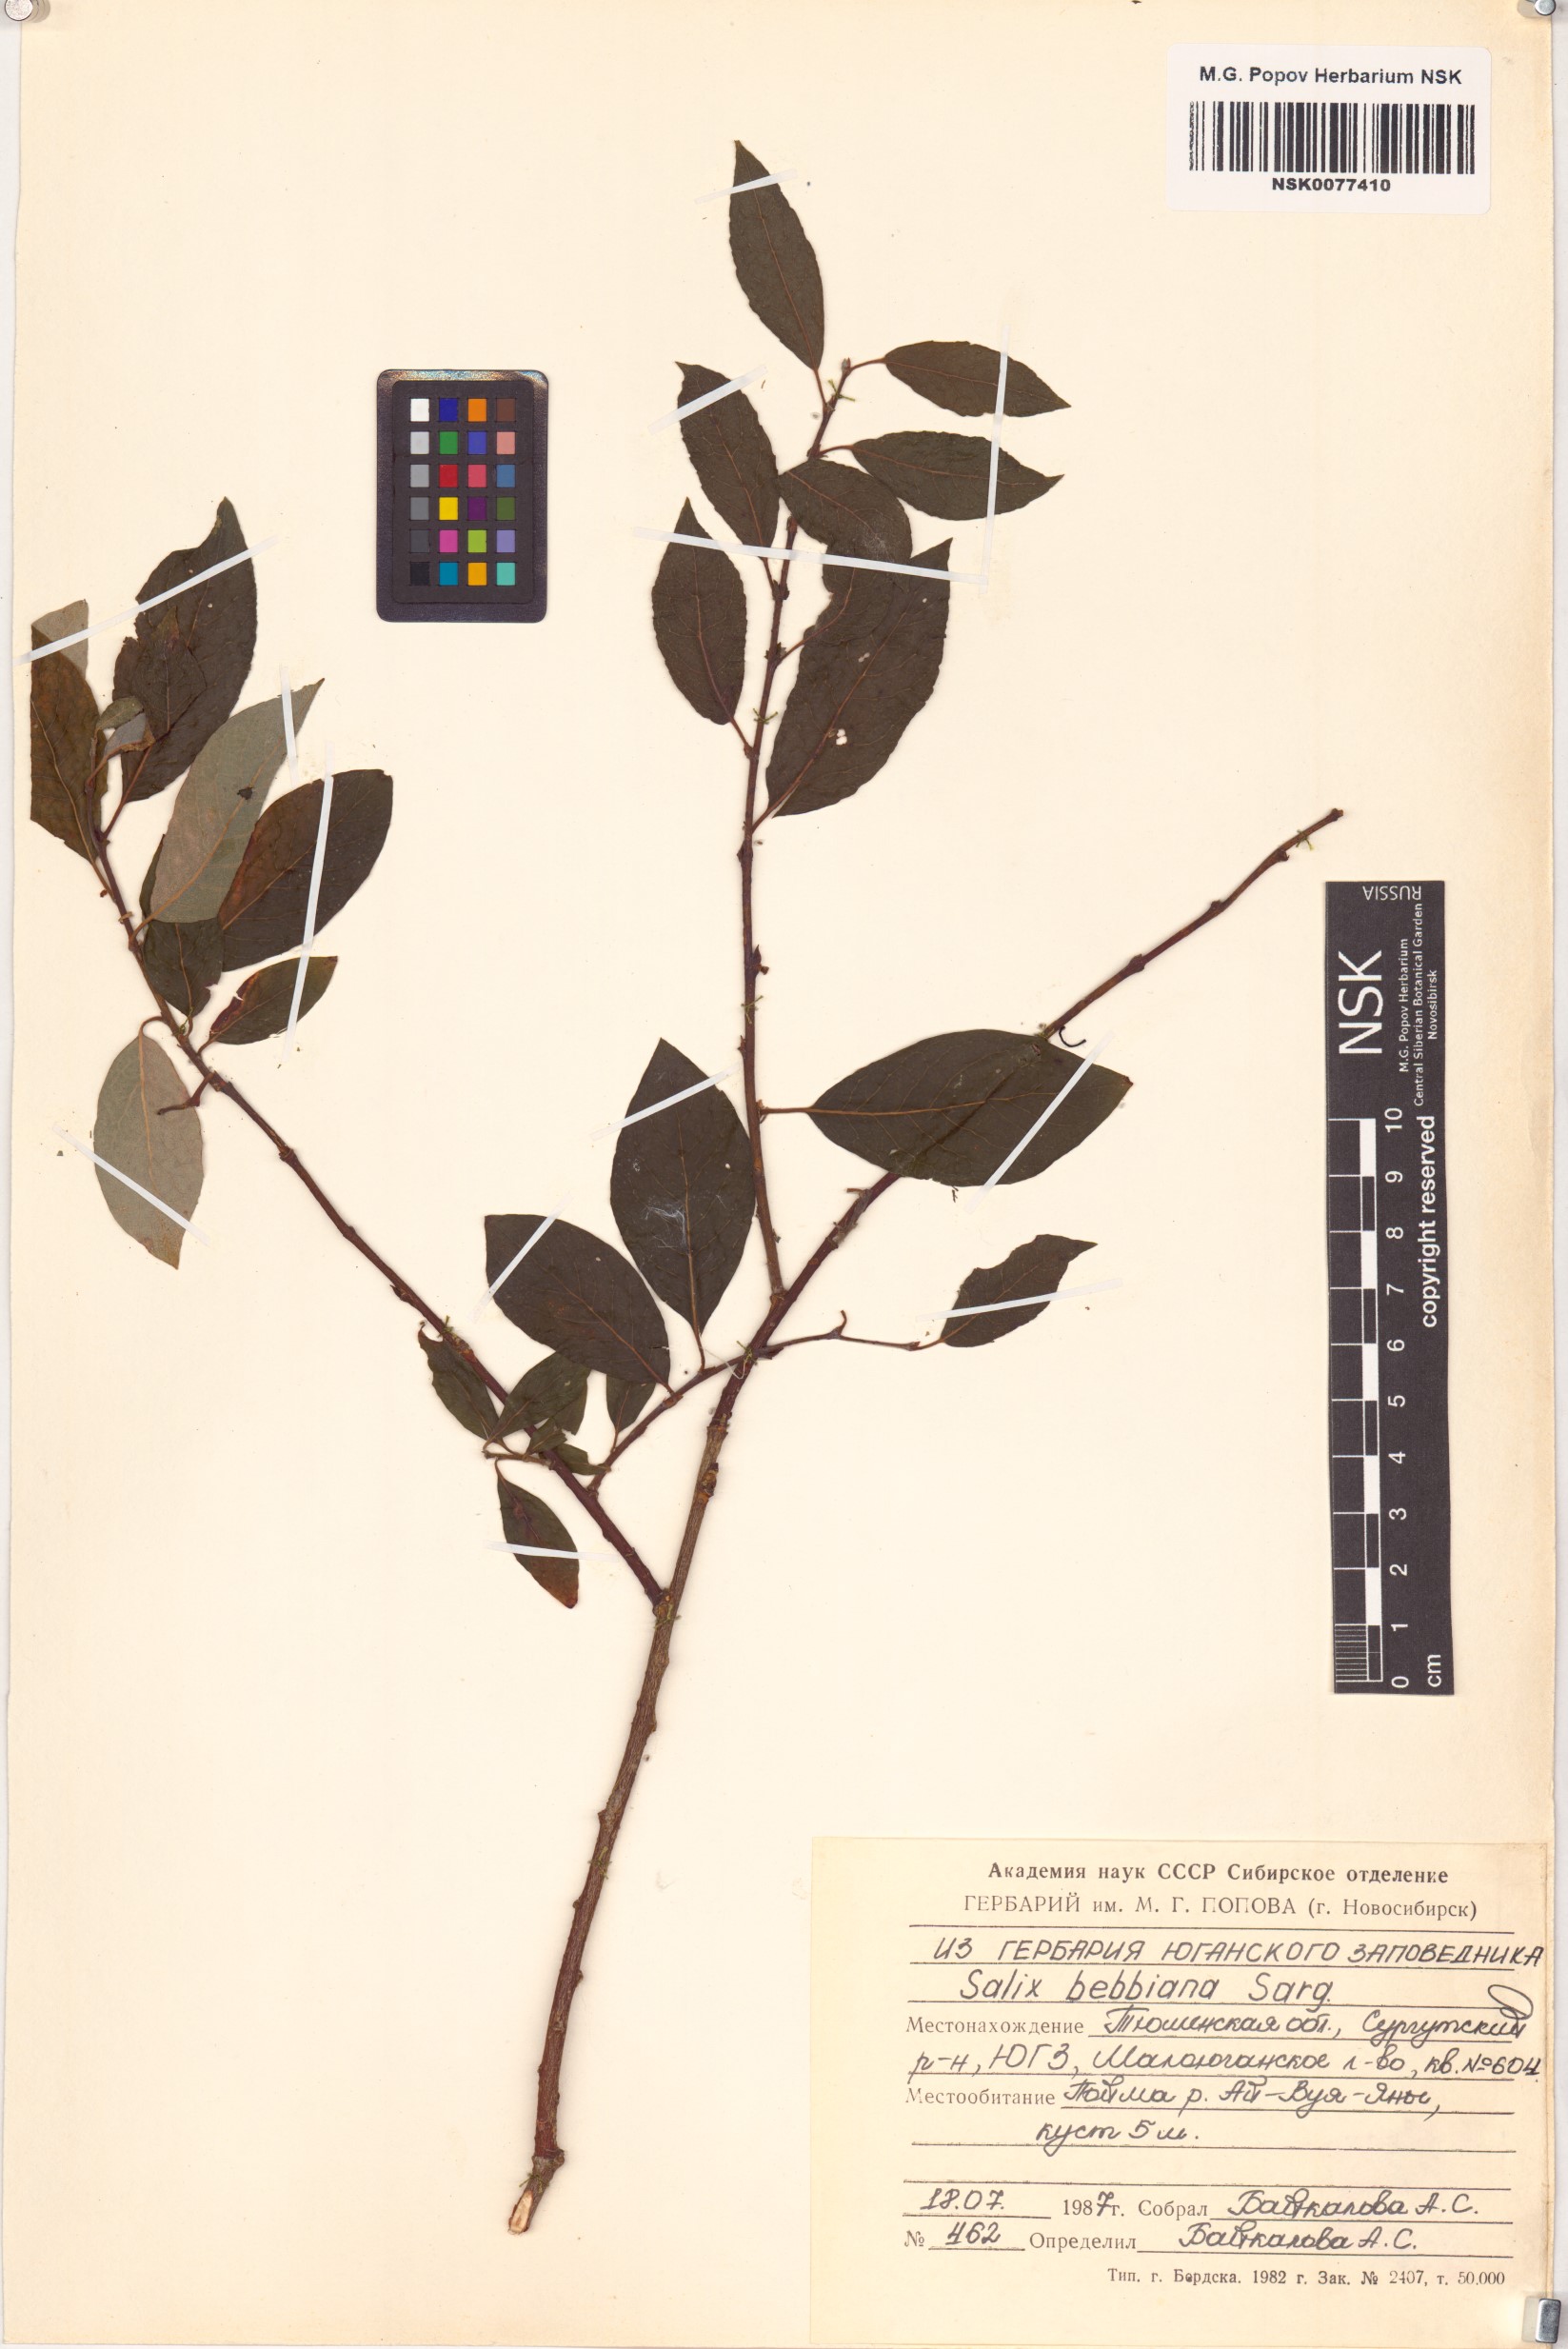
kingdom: Plantae
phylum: Tracheophyta
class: Magnoliopsida
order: Malpighiales
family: Salicaceae
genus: Salix
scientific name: Salix bebbiana
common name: Bebb's willow
